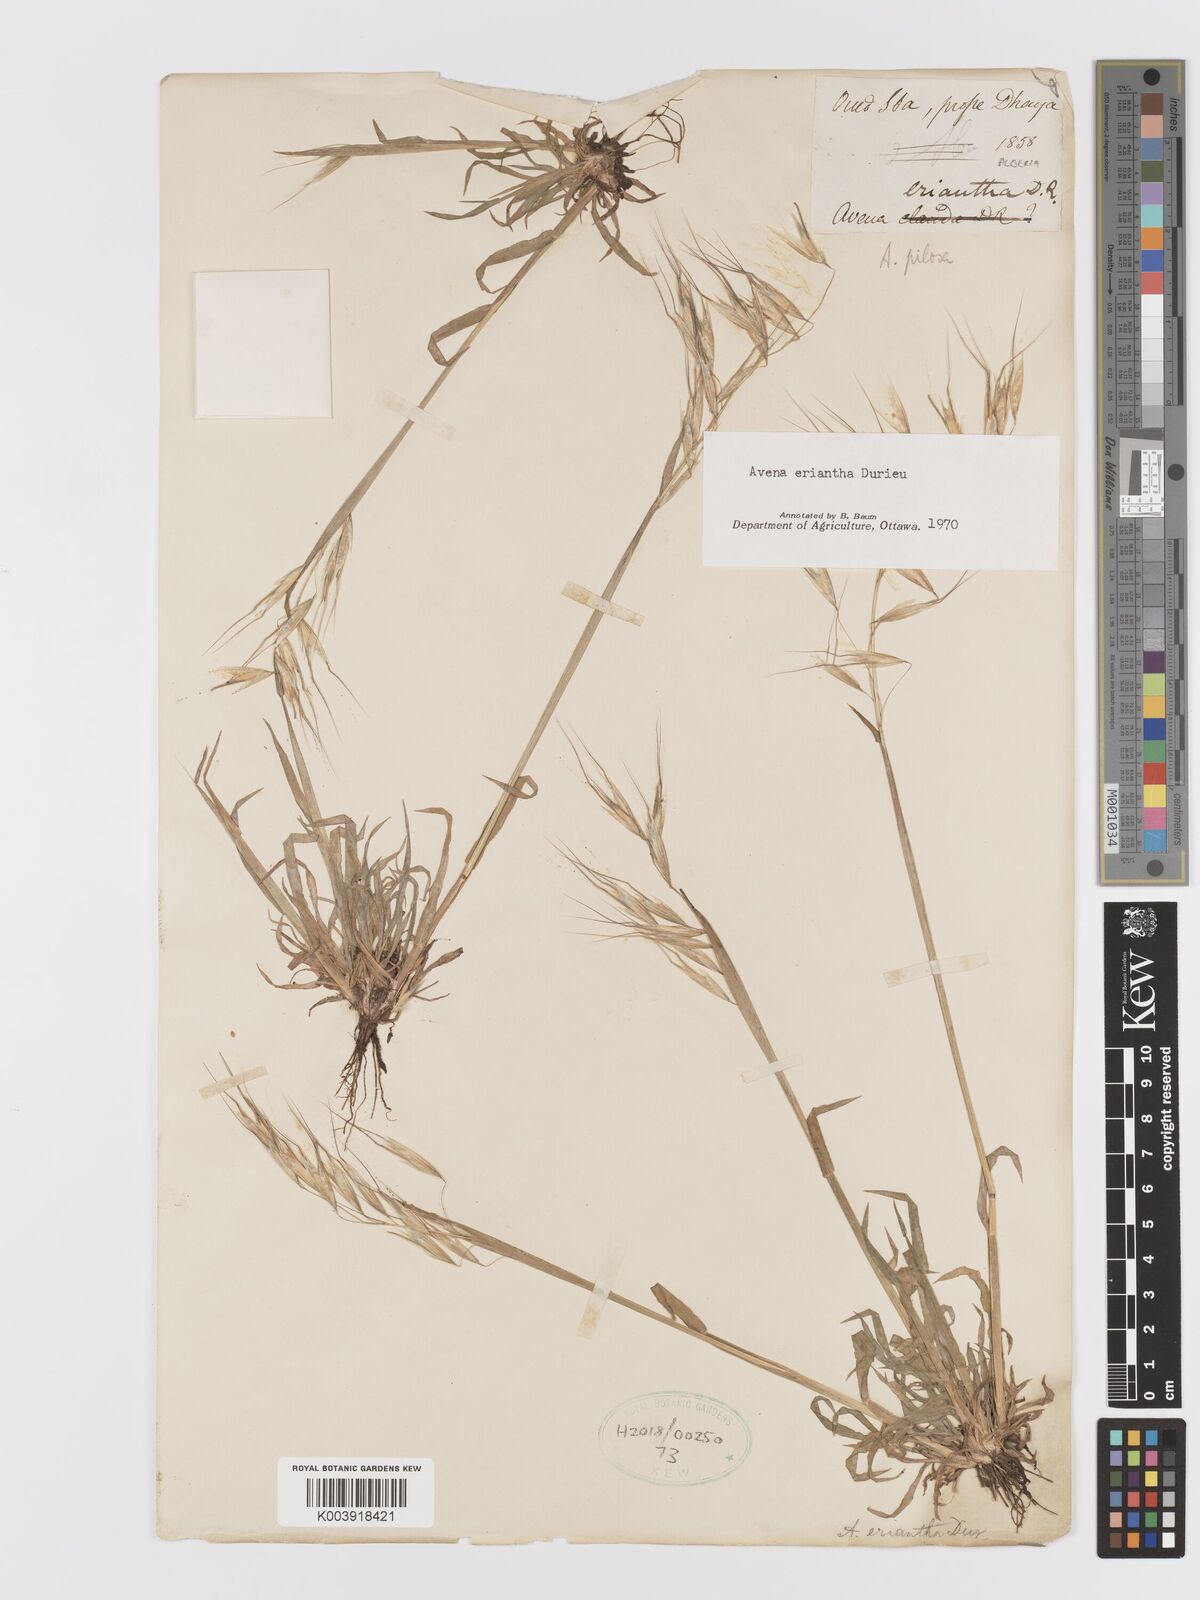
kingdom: Plantae
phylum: Tracheophyta
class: Liliopsida
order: Poales
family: Poaceae
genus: Avena
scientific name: Avena eriantha
